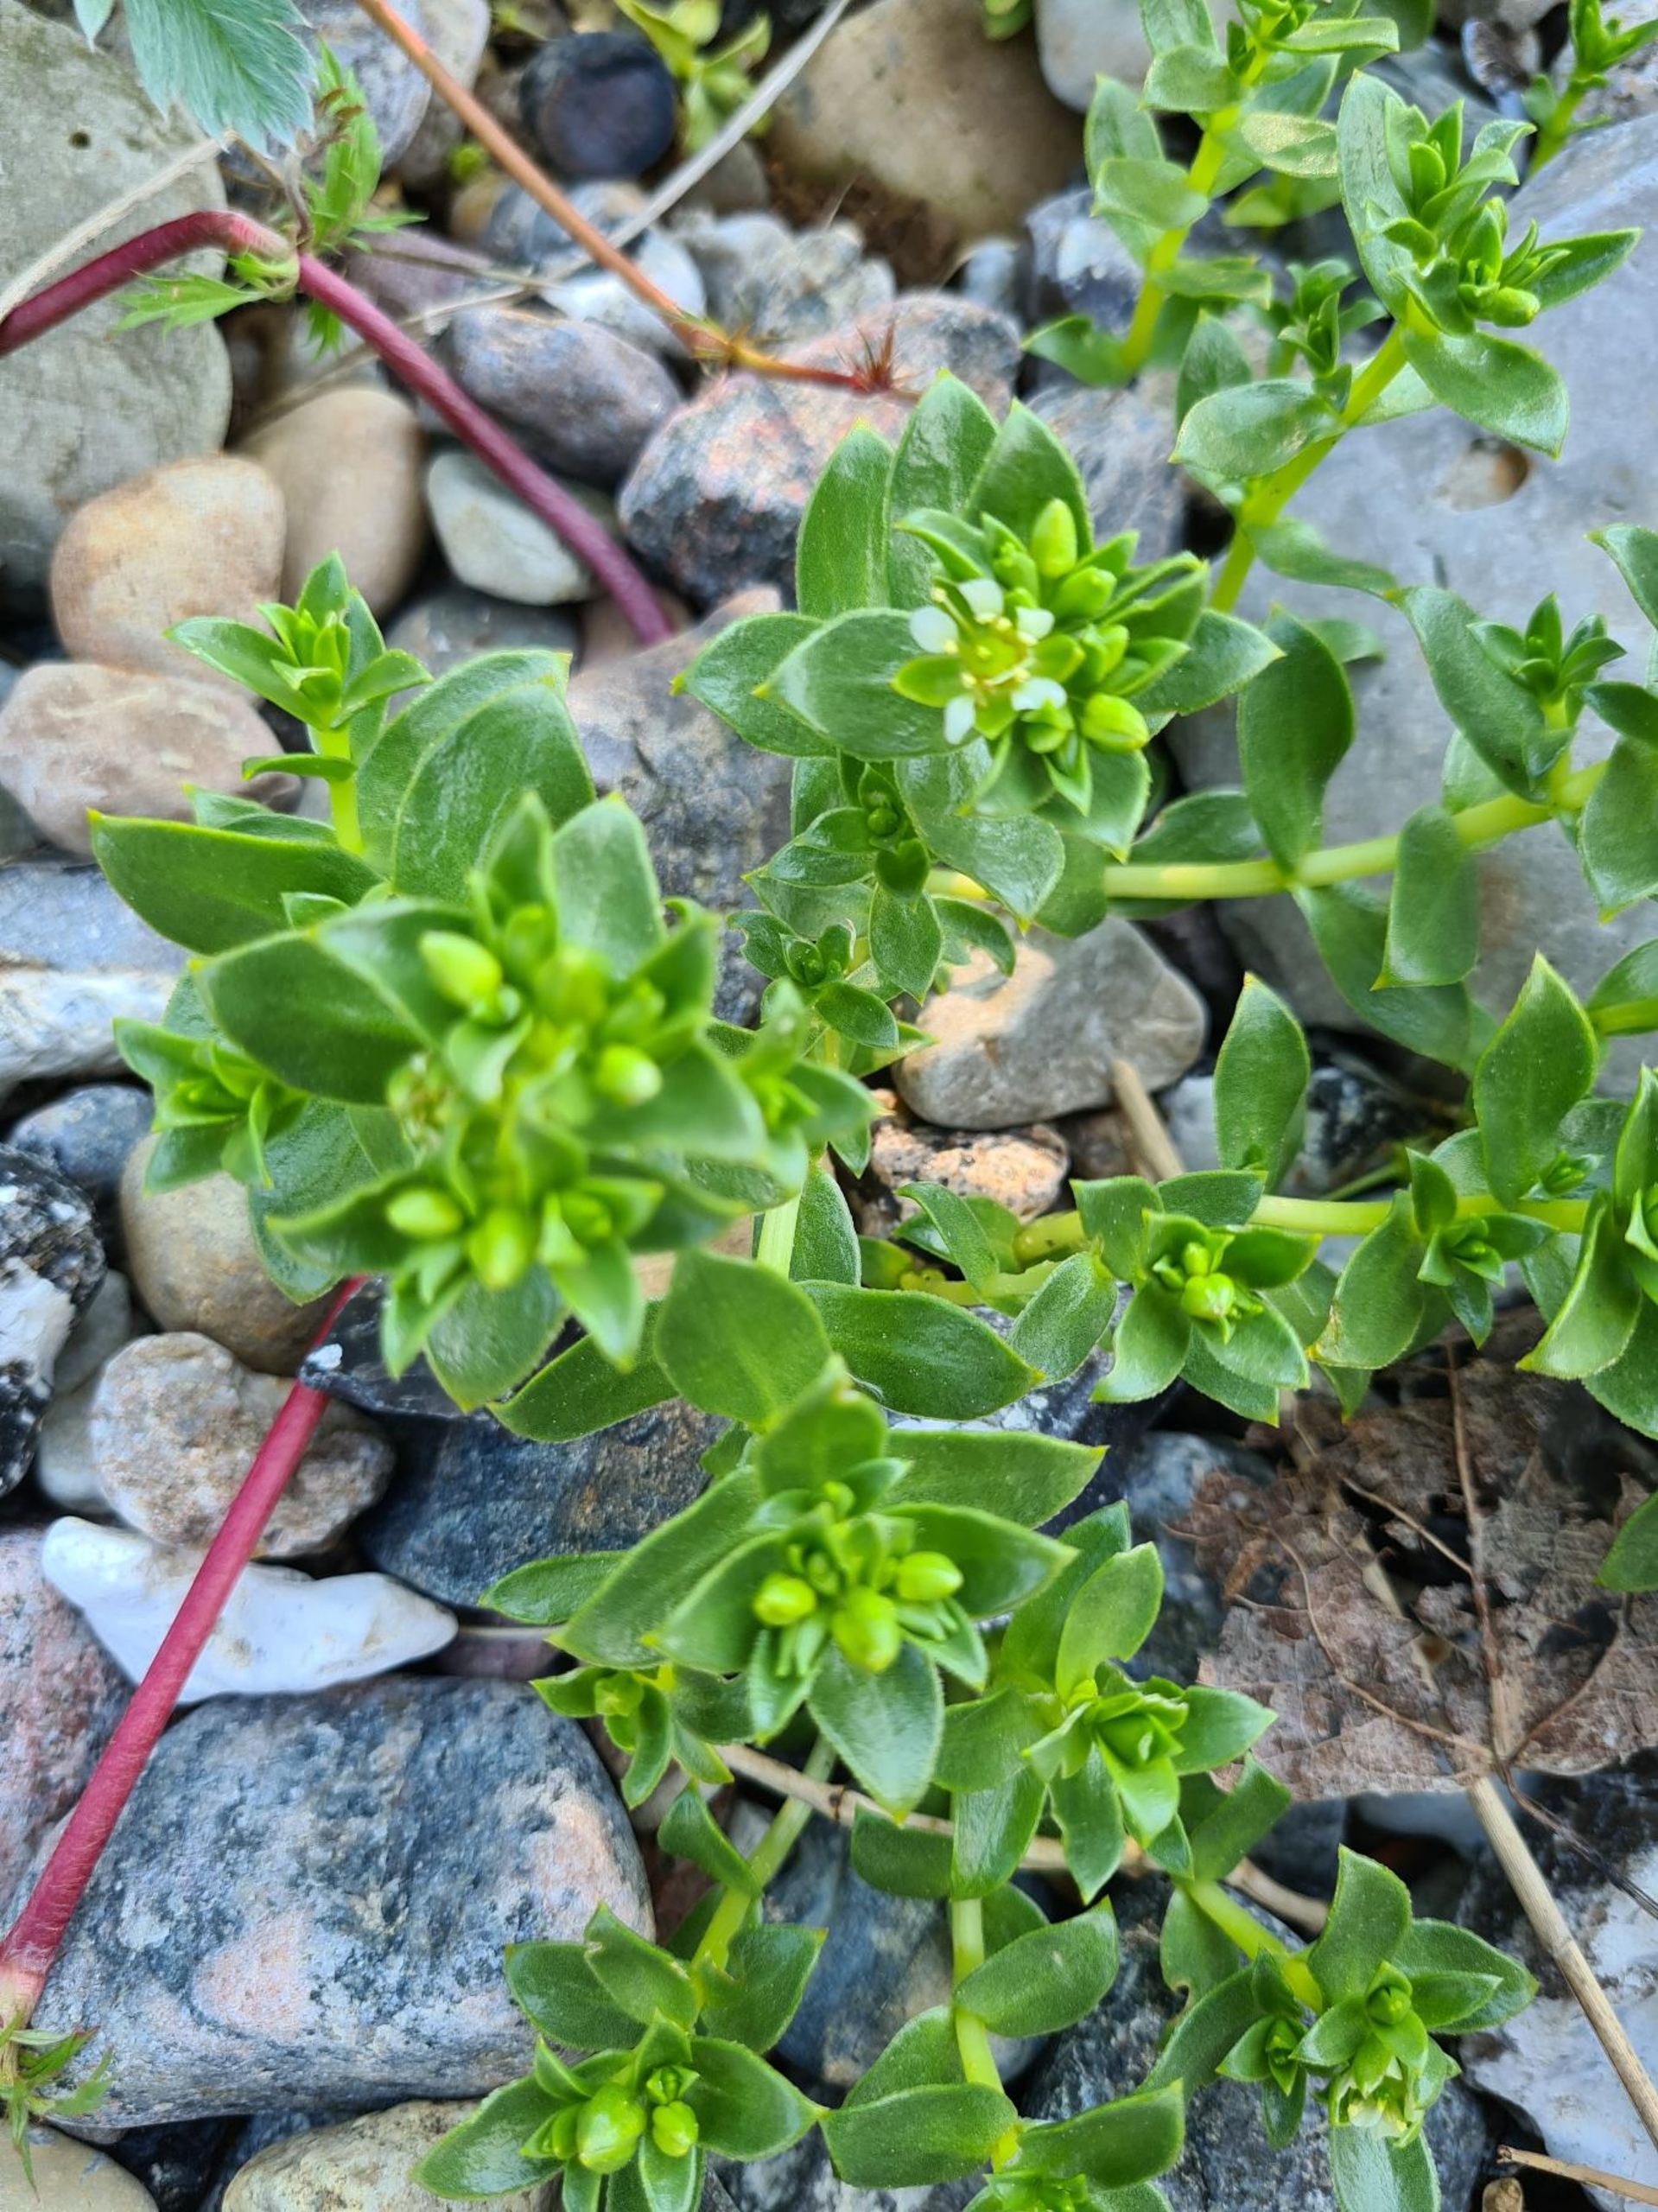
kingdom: Plantae
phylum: Tracheophyta
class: Magnoliopsida
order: Caryophyllales
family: Caryophyllaceae
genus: Honckenya
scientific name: Honckenya peploides
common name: Strandarve
